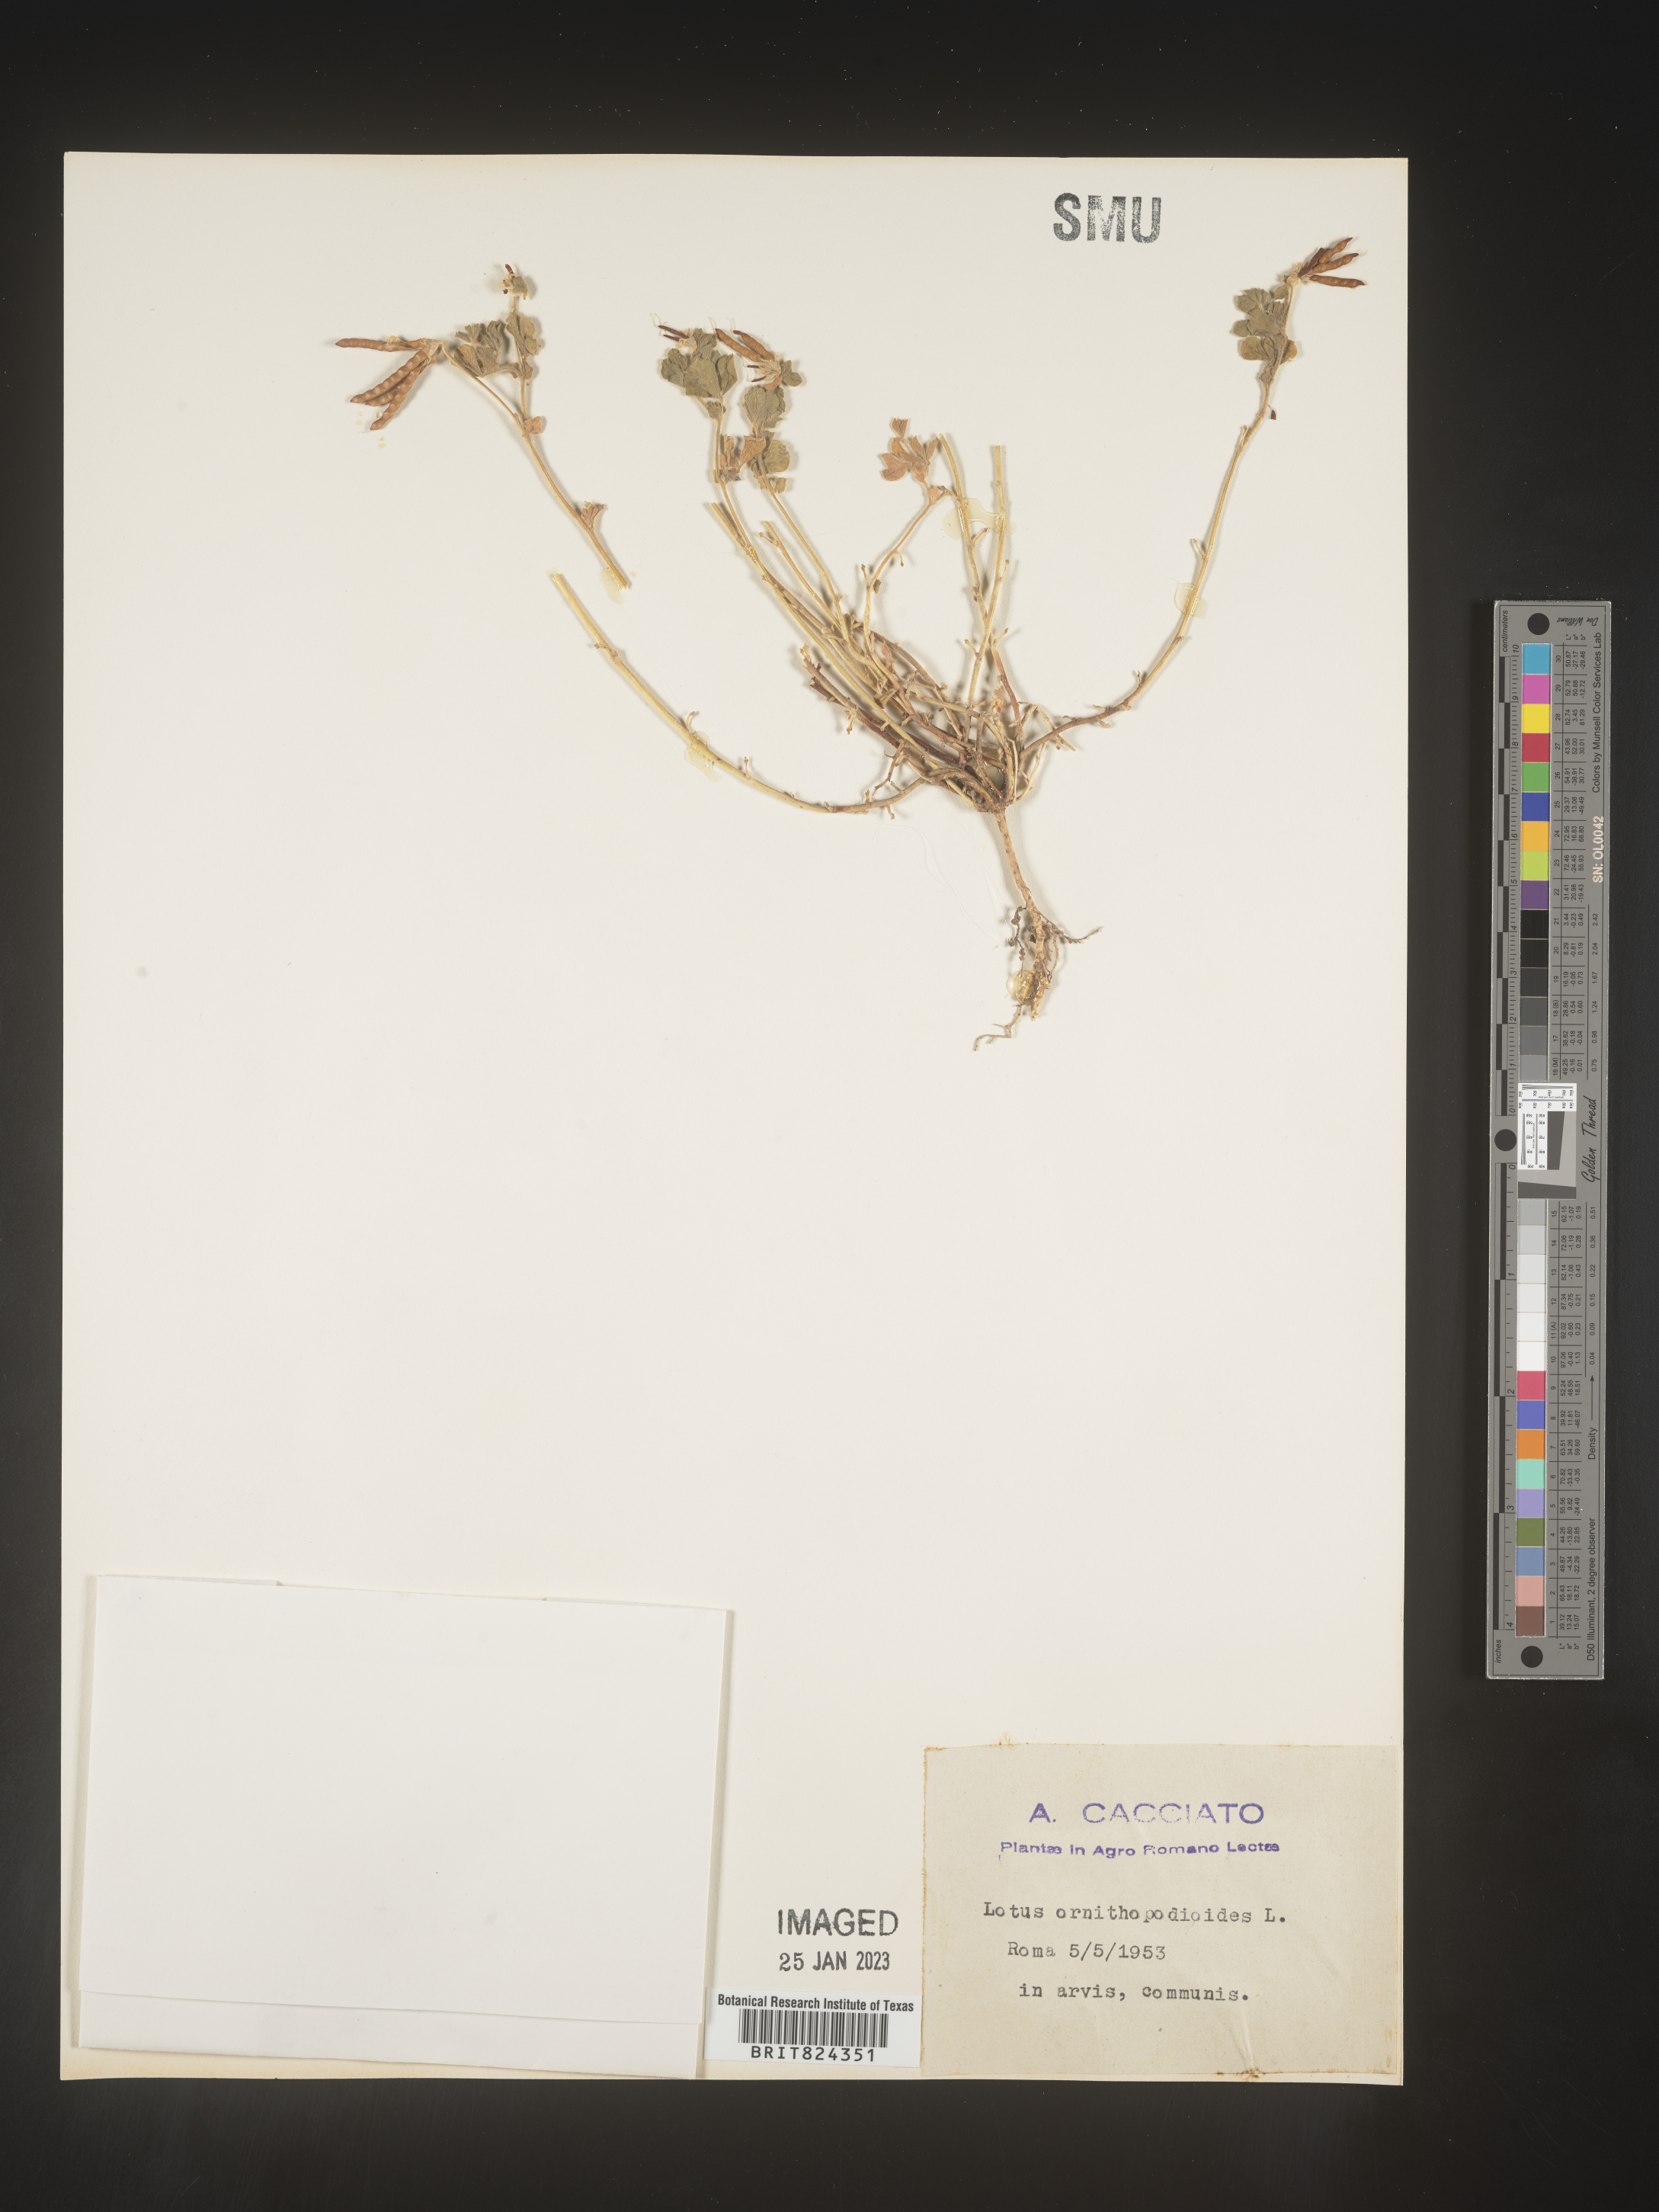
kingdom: Plantae
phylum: Tracheophyta
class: Magnoliopsida
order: Fabales
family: Fabaceae
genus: Lotus
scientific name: Lotus
